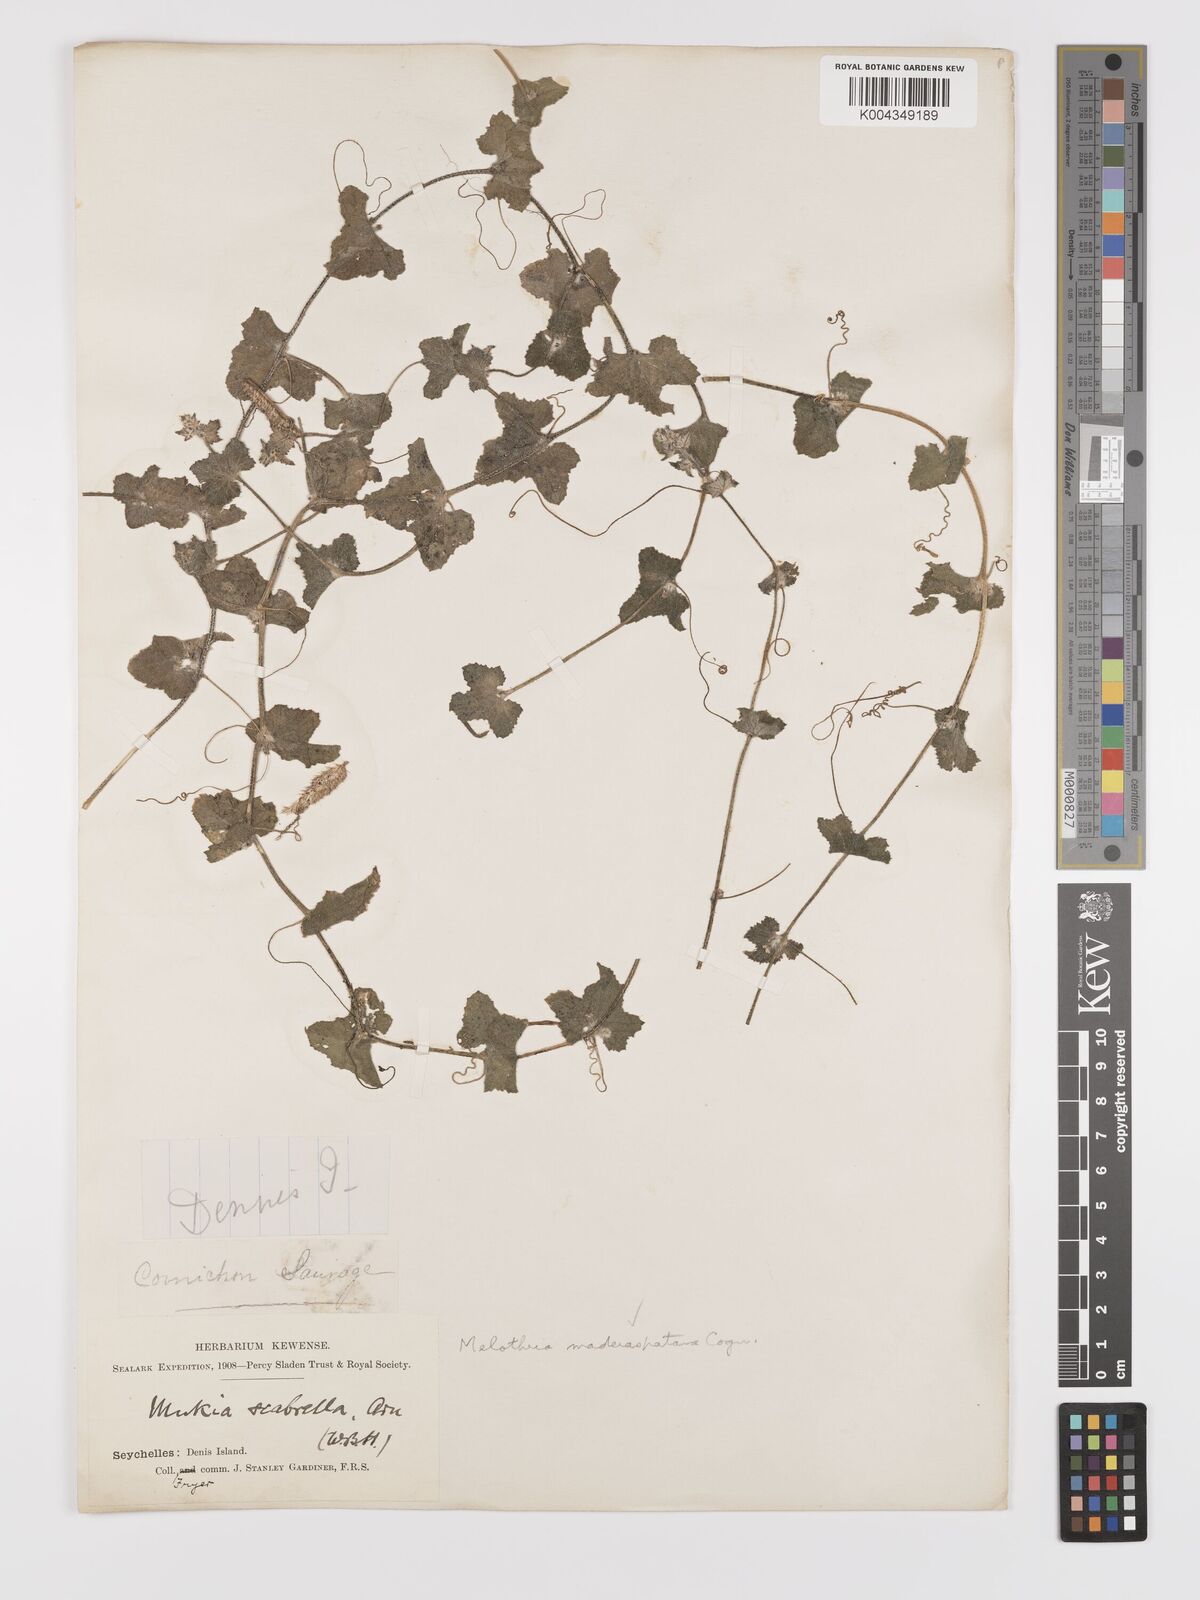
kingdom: Animalia
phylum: Arthropoda
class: Insecta
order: Lepidoptera
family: Crambidae
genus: Mukia
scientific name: Mukia
